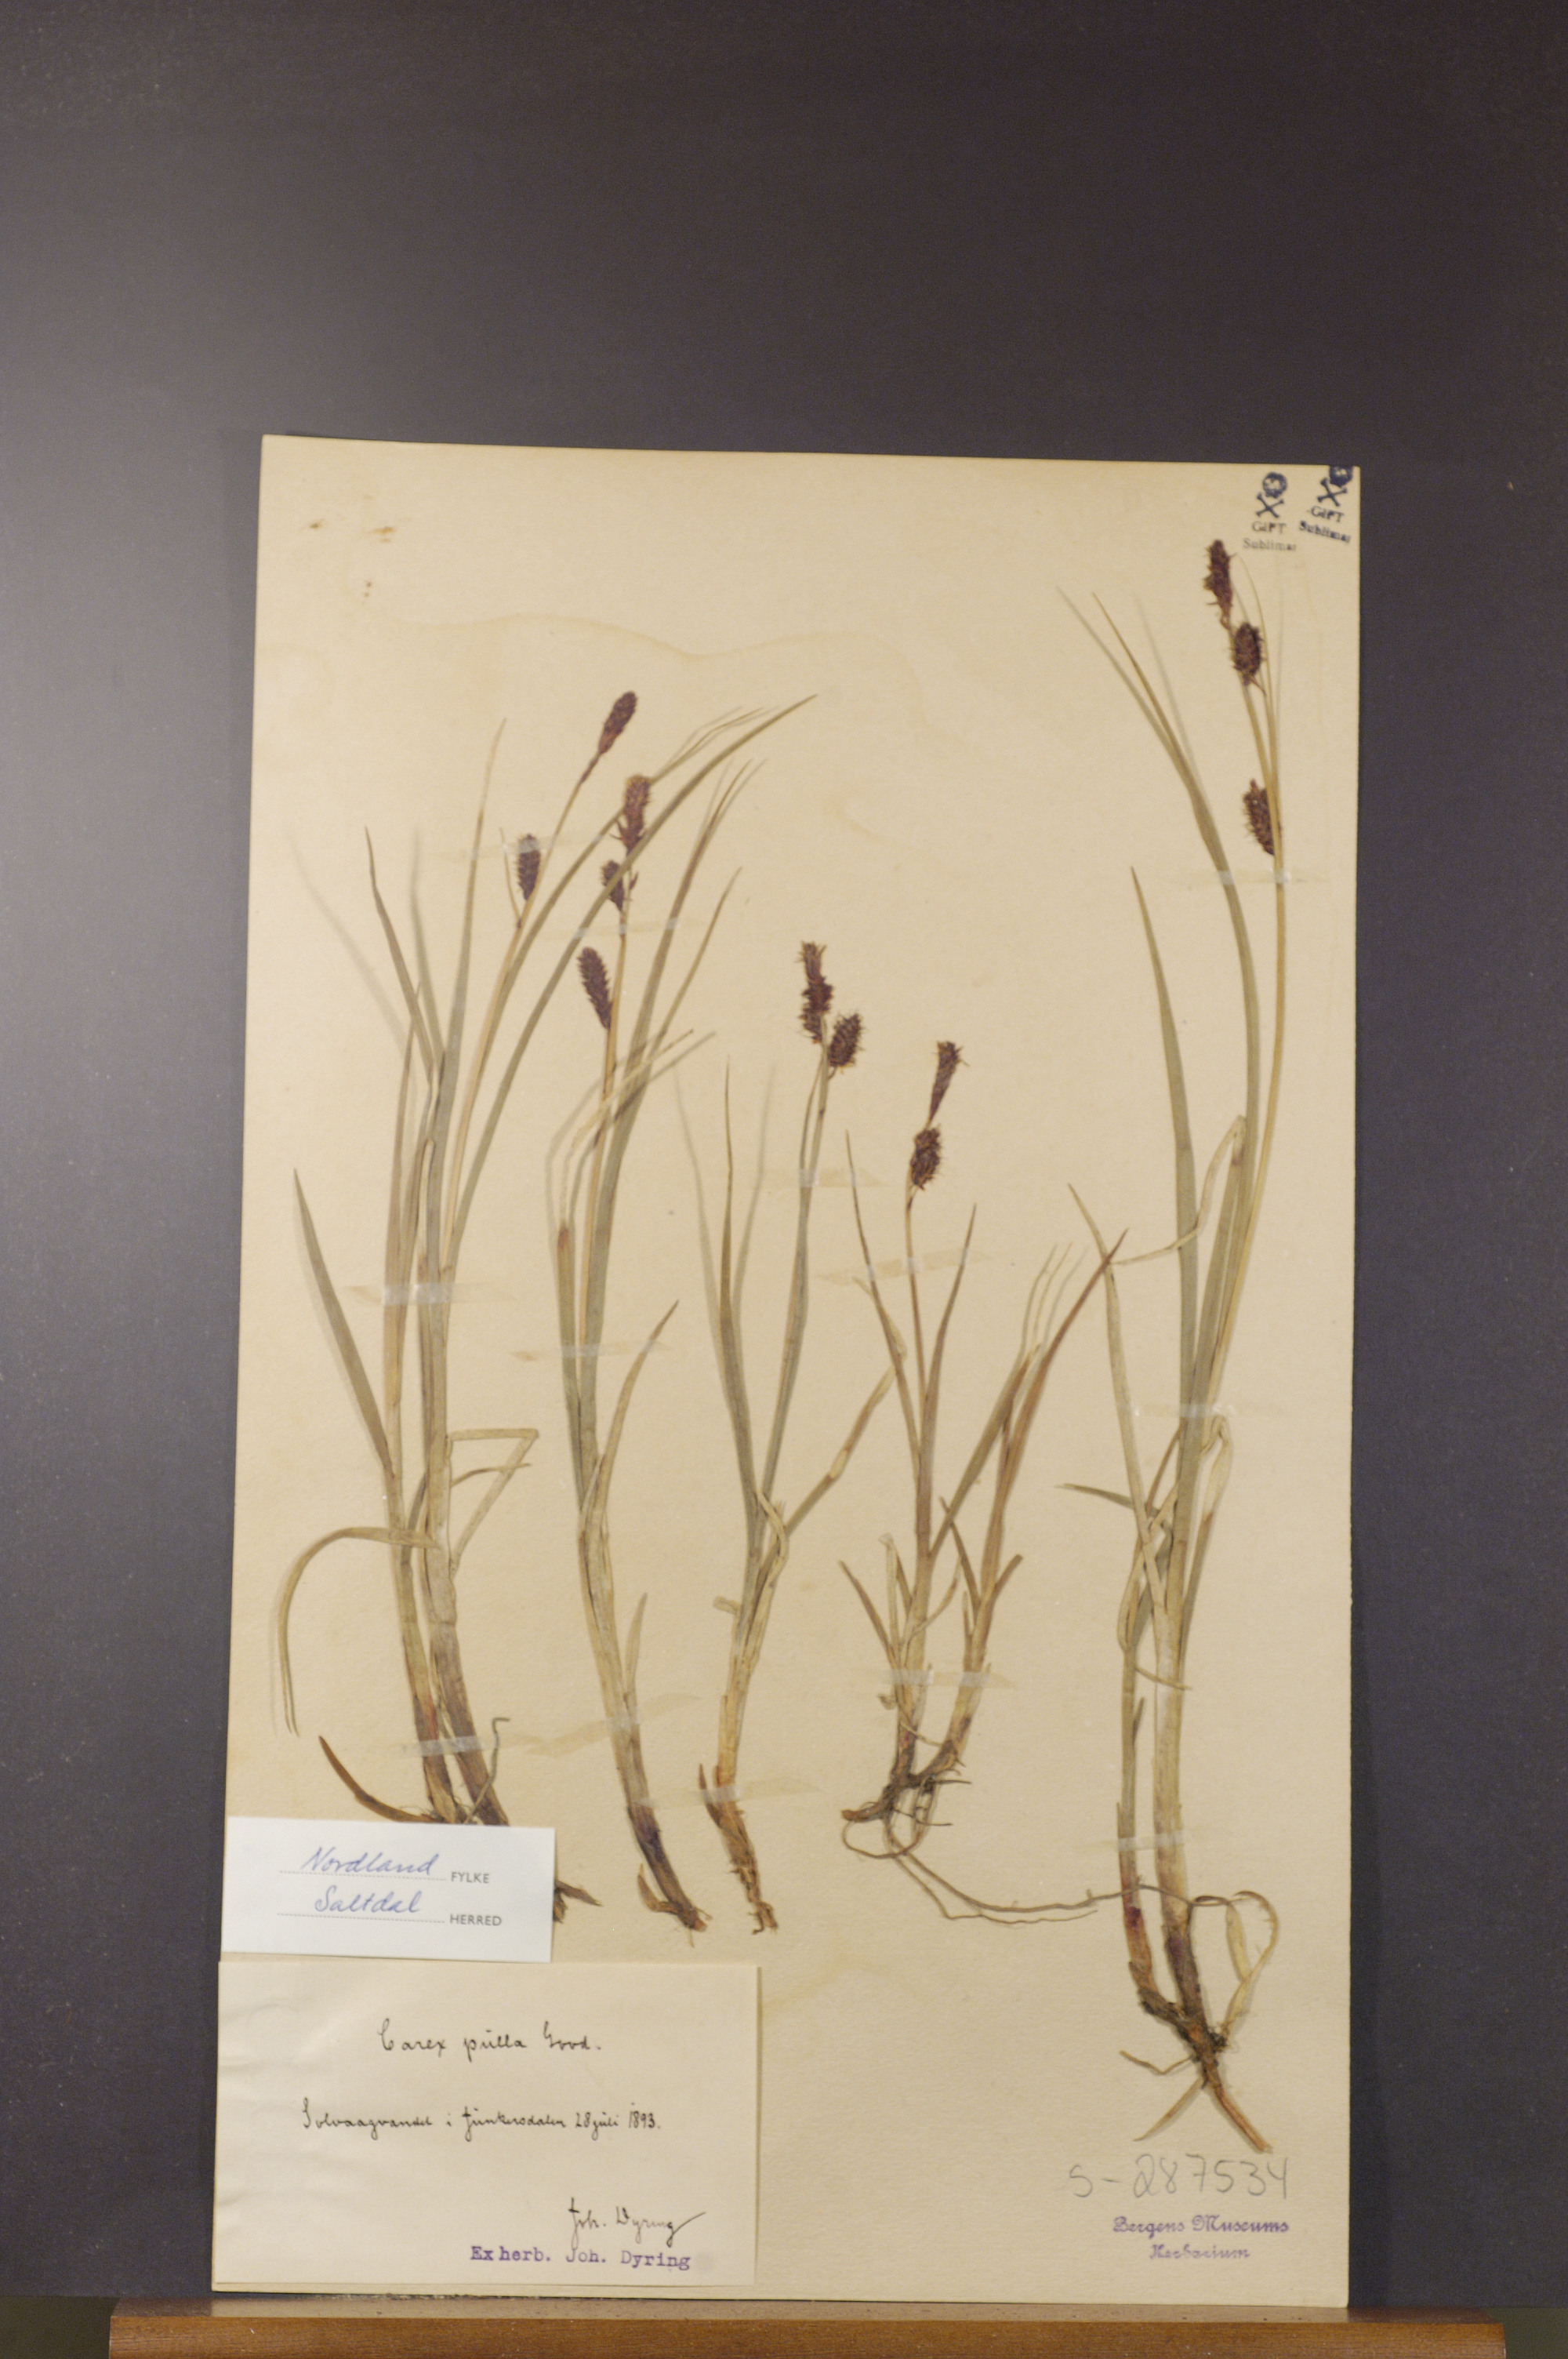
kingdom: Plantae
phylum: Tracheophyta
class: Liliopsida
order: Poales
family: Cyperaceae
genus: Carex
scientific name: Carex saxatilis
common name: Russet sedge
